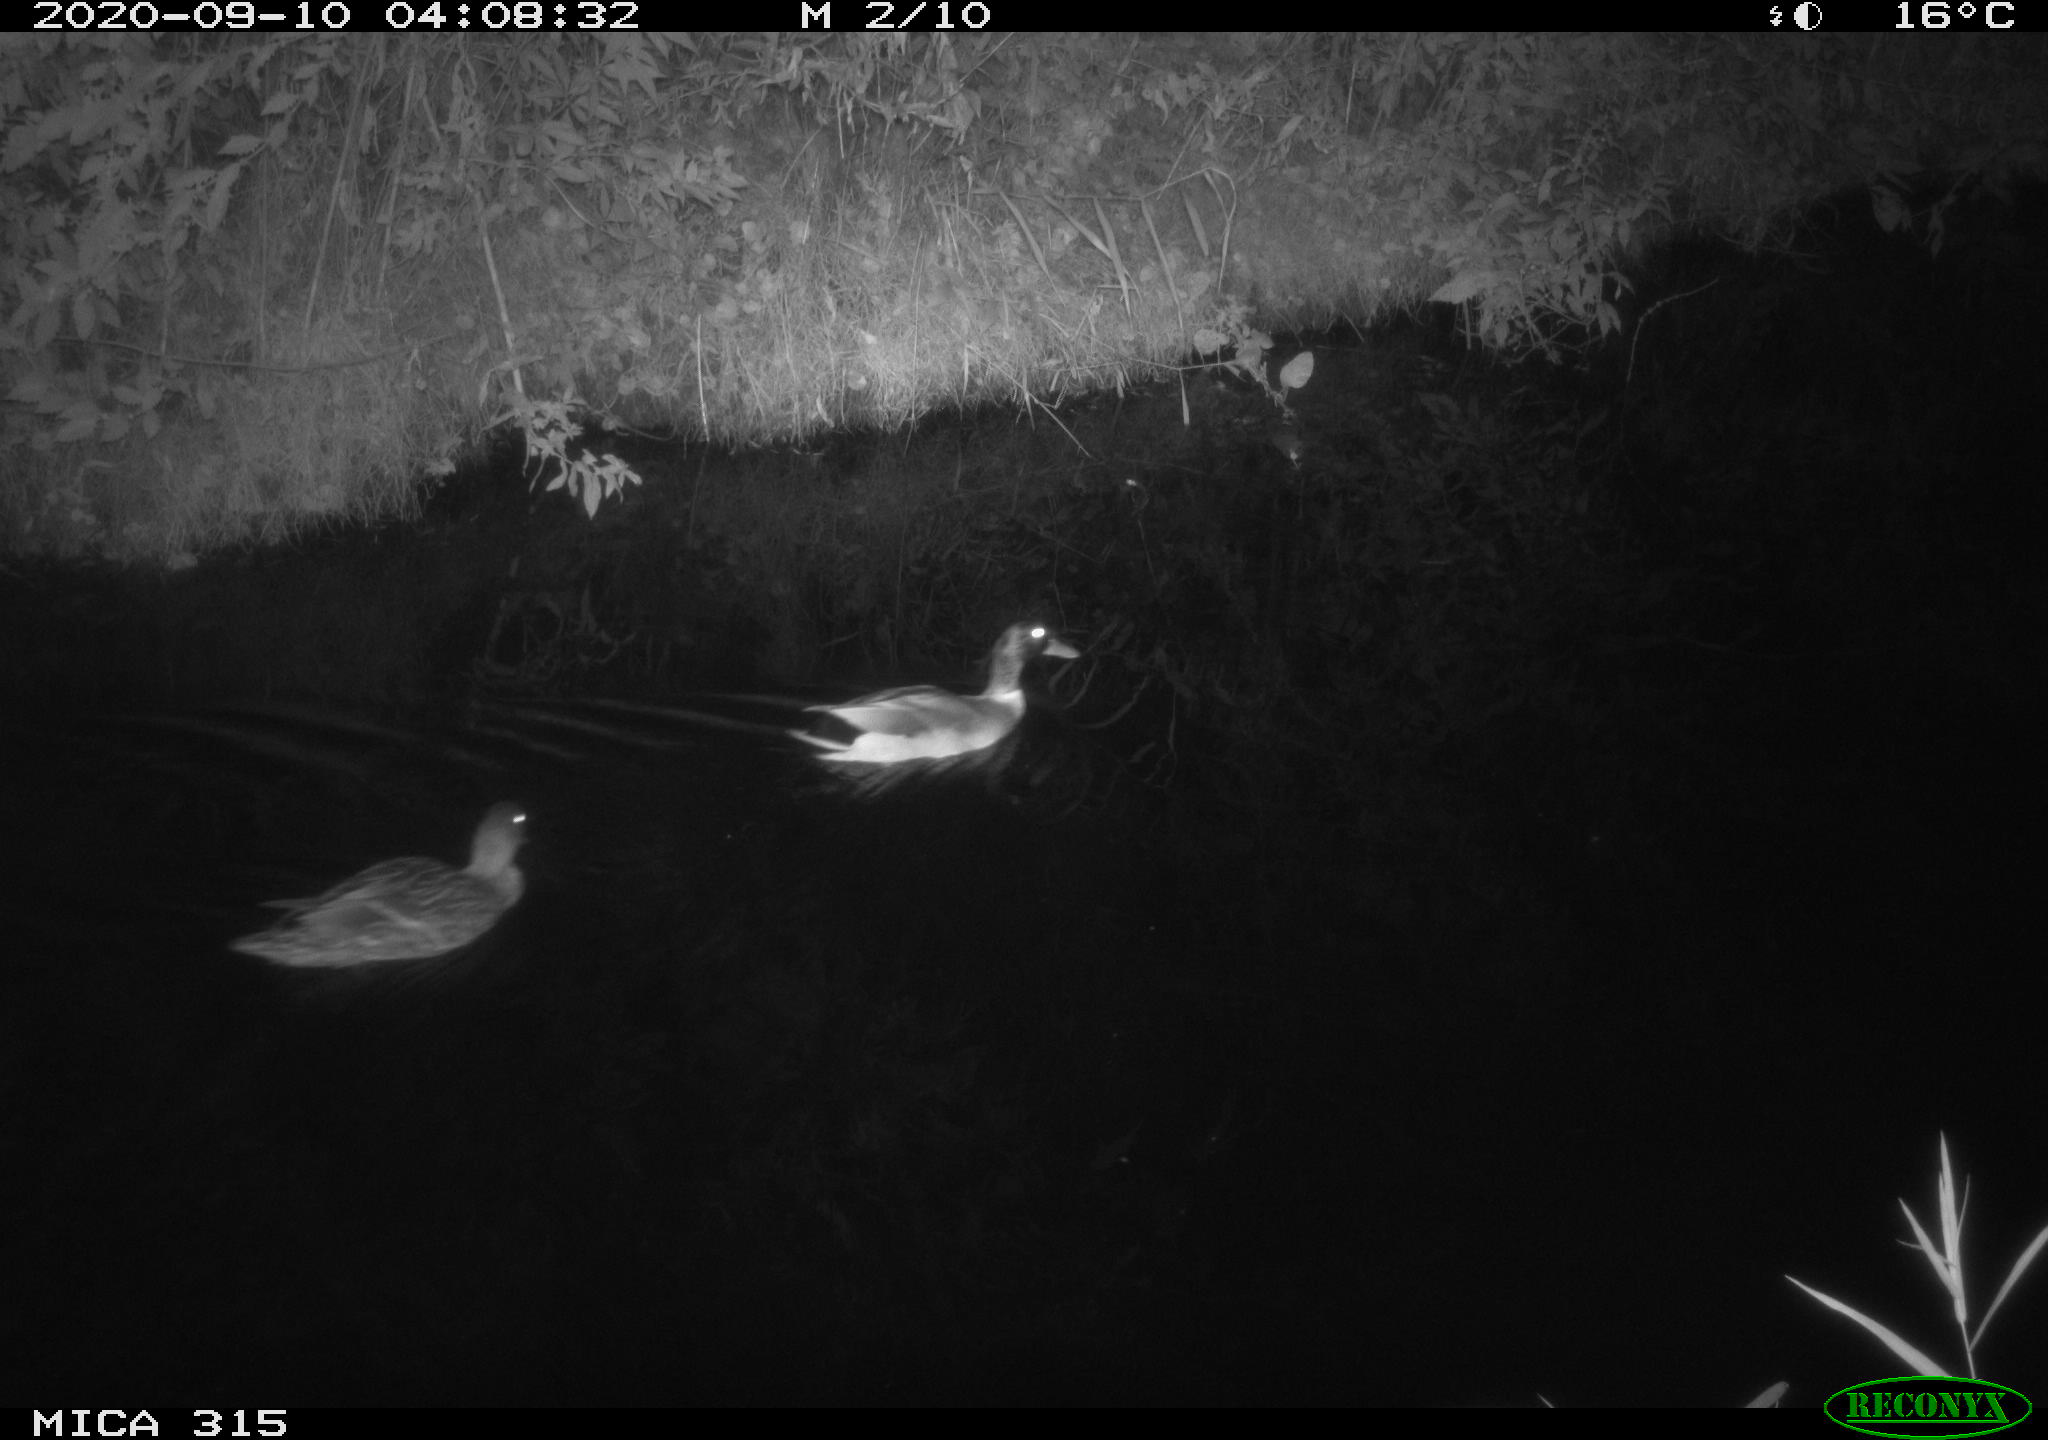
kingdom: Animalia
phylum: Chordata
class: Aves
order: Anseriformes
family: Anatidae
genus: Anas
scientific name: Anas platyrhynchos
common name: Mallard
